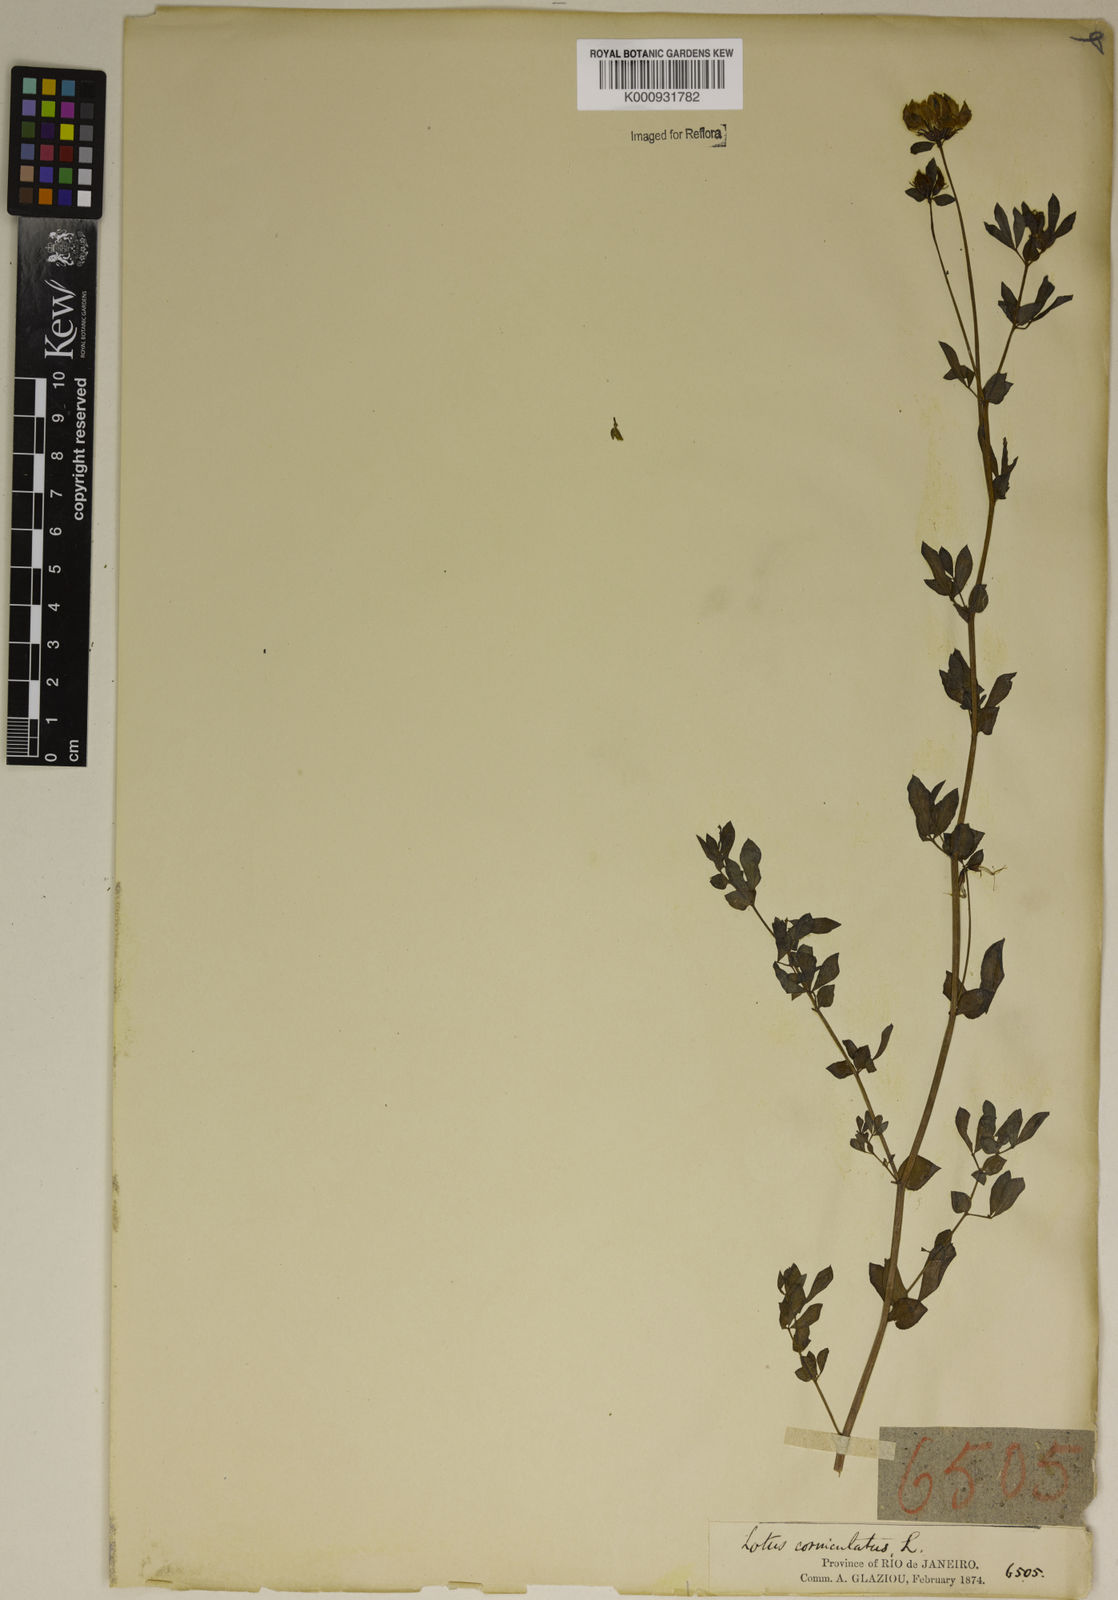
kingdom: Plantae
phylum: Tracheophyta
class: Magnoliopsida
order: Fabales
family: Fabaceae
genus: Lotus
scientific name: Lotus corniculatus
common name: Common bird's-foot-trefoil
